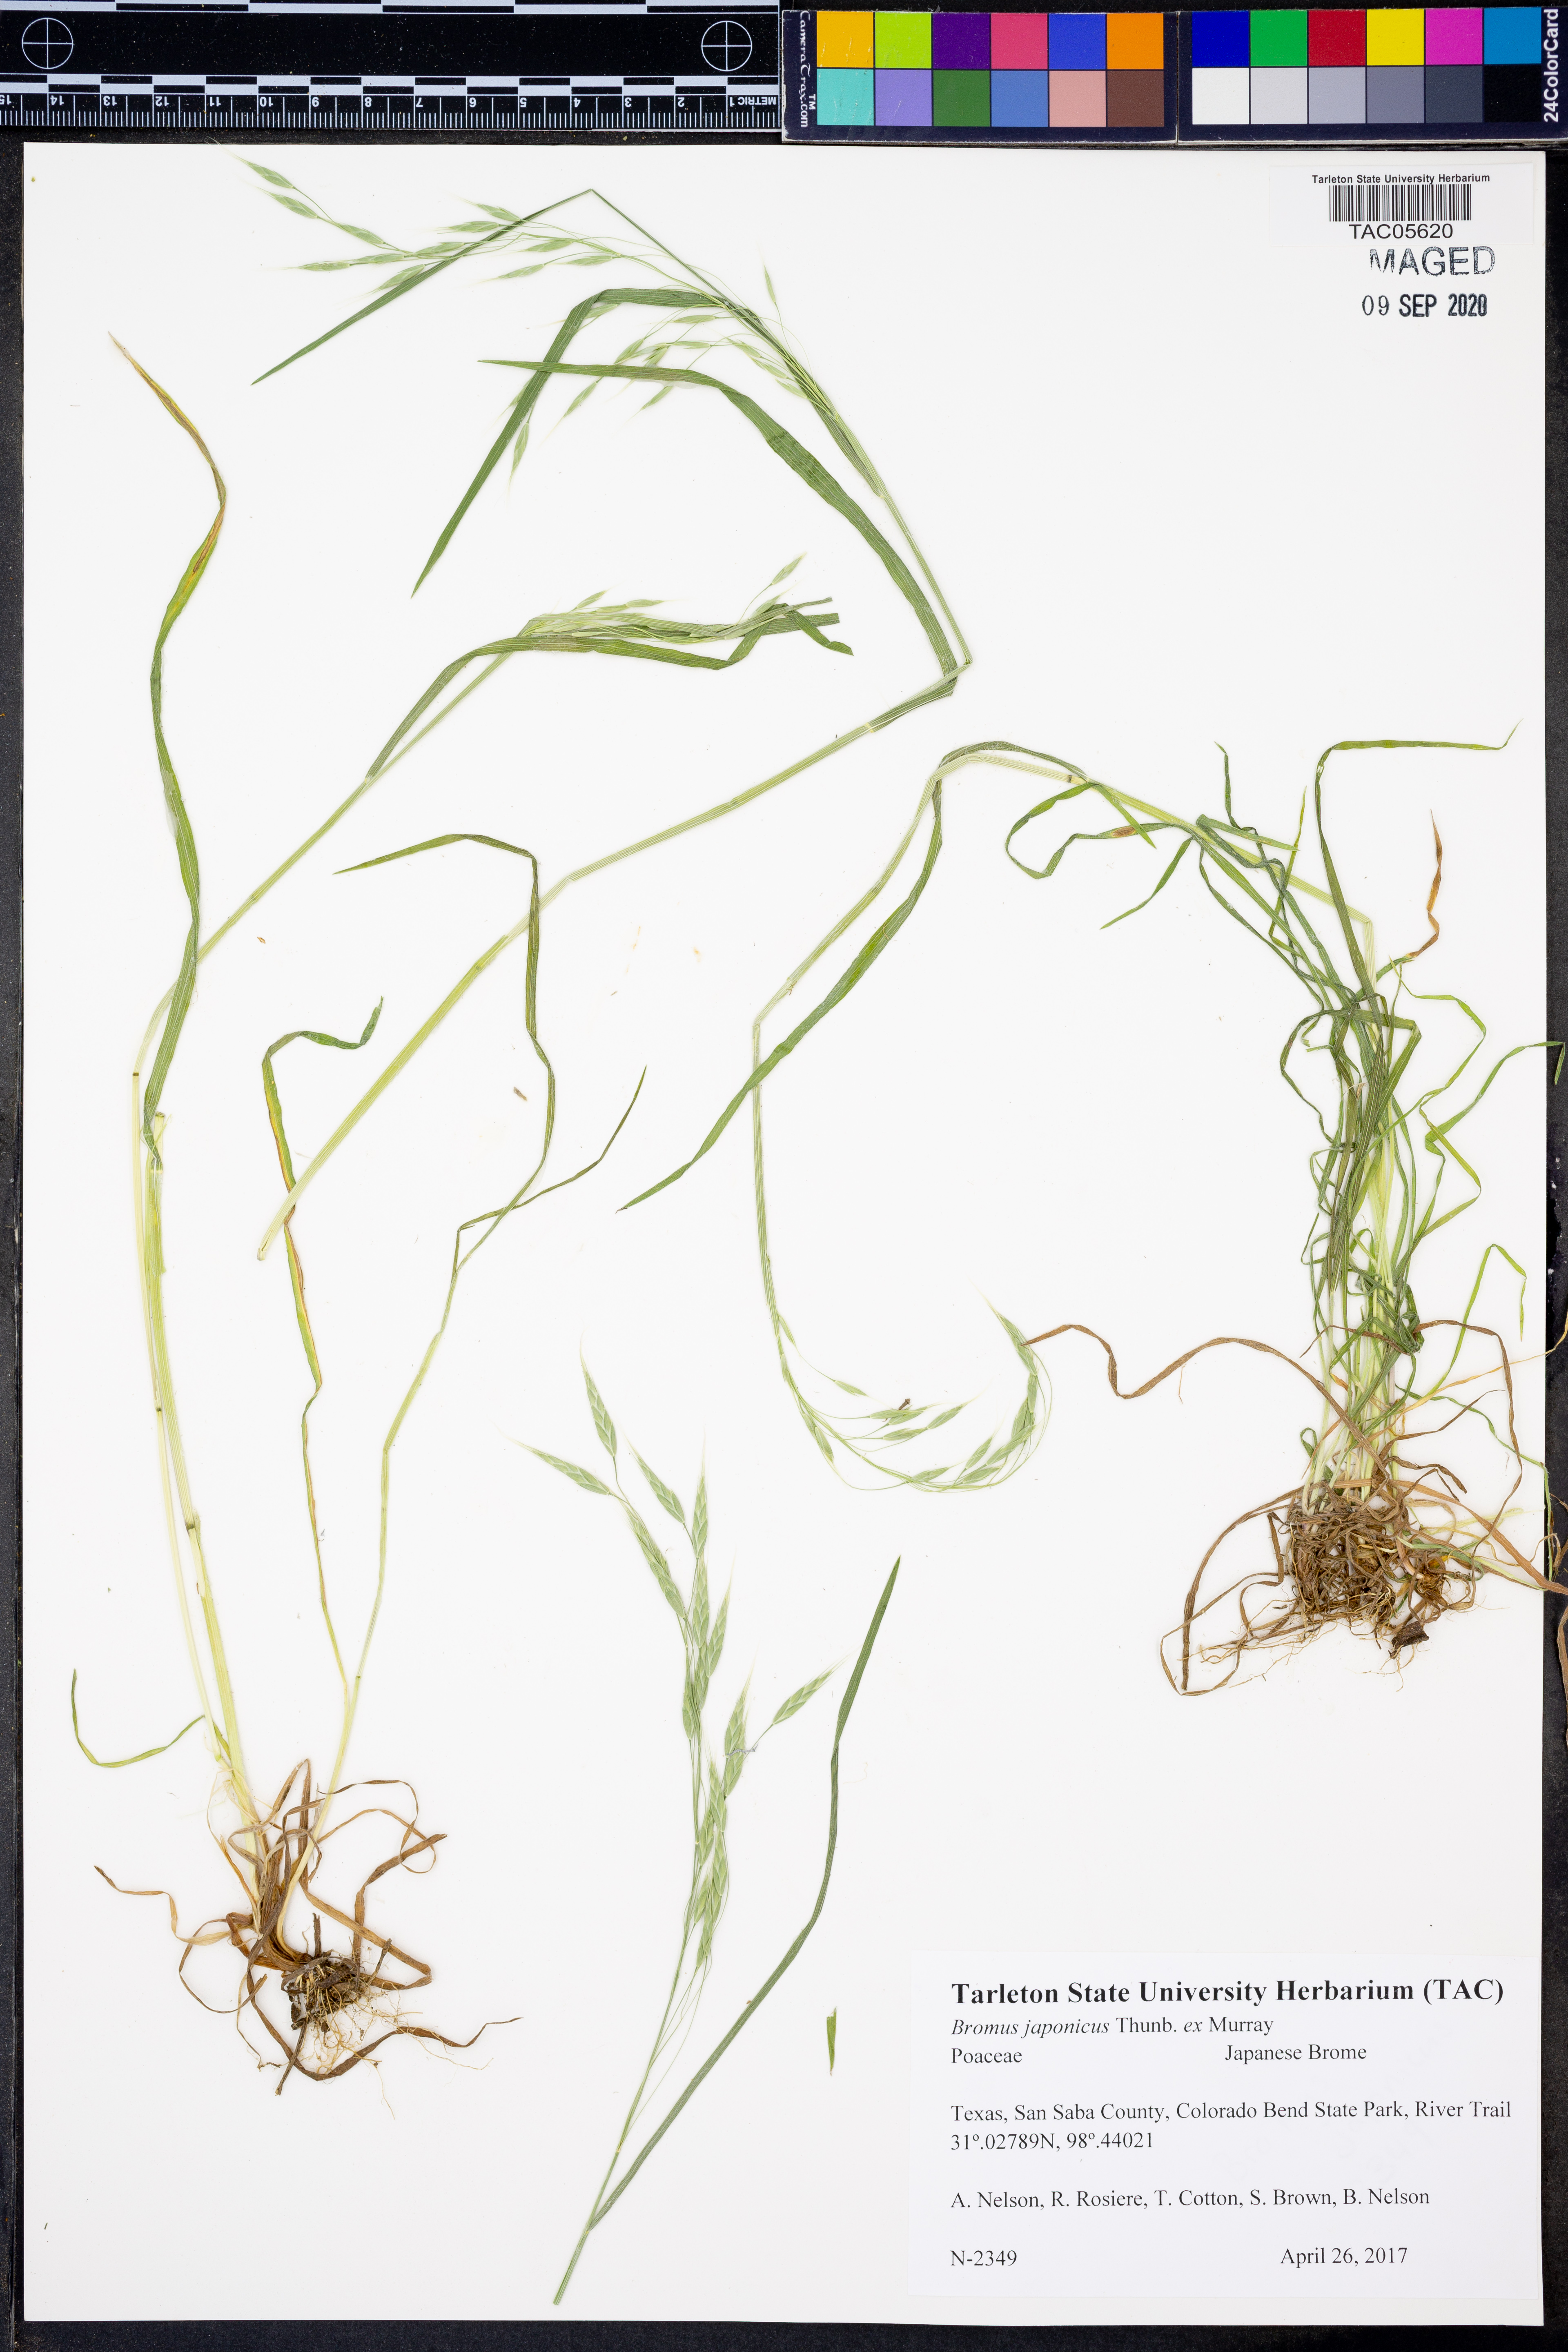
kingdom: Plantae
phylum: Tracheophyta
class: Liliopsida
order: Poales
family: Poaceae
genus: Bromus
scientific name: Bromus japonicus
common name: Japanese brome
